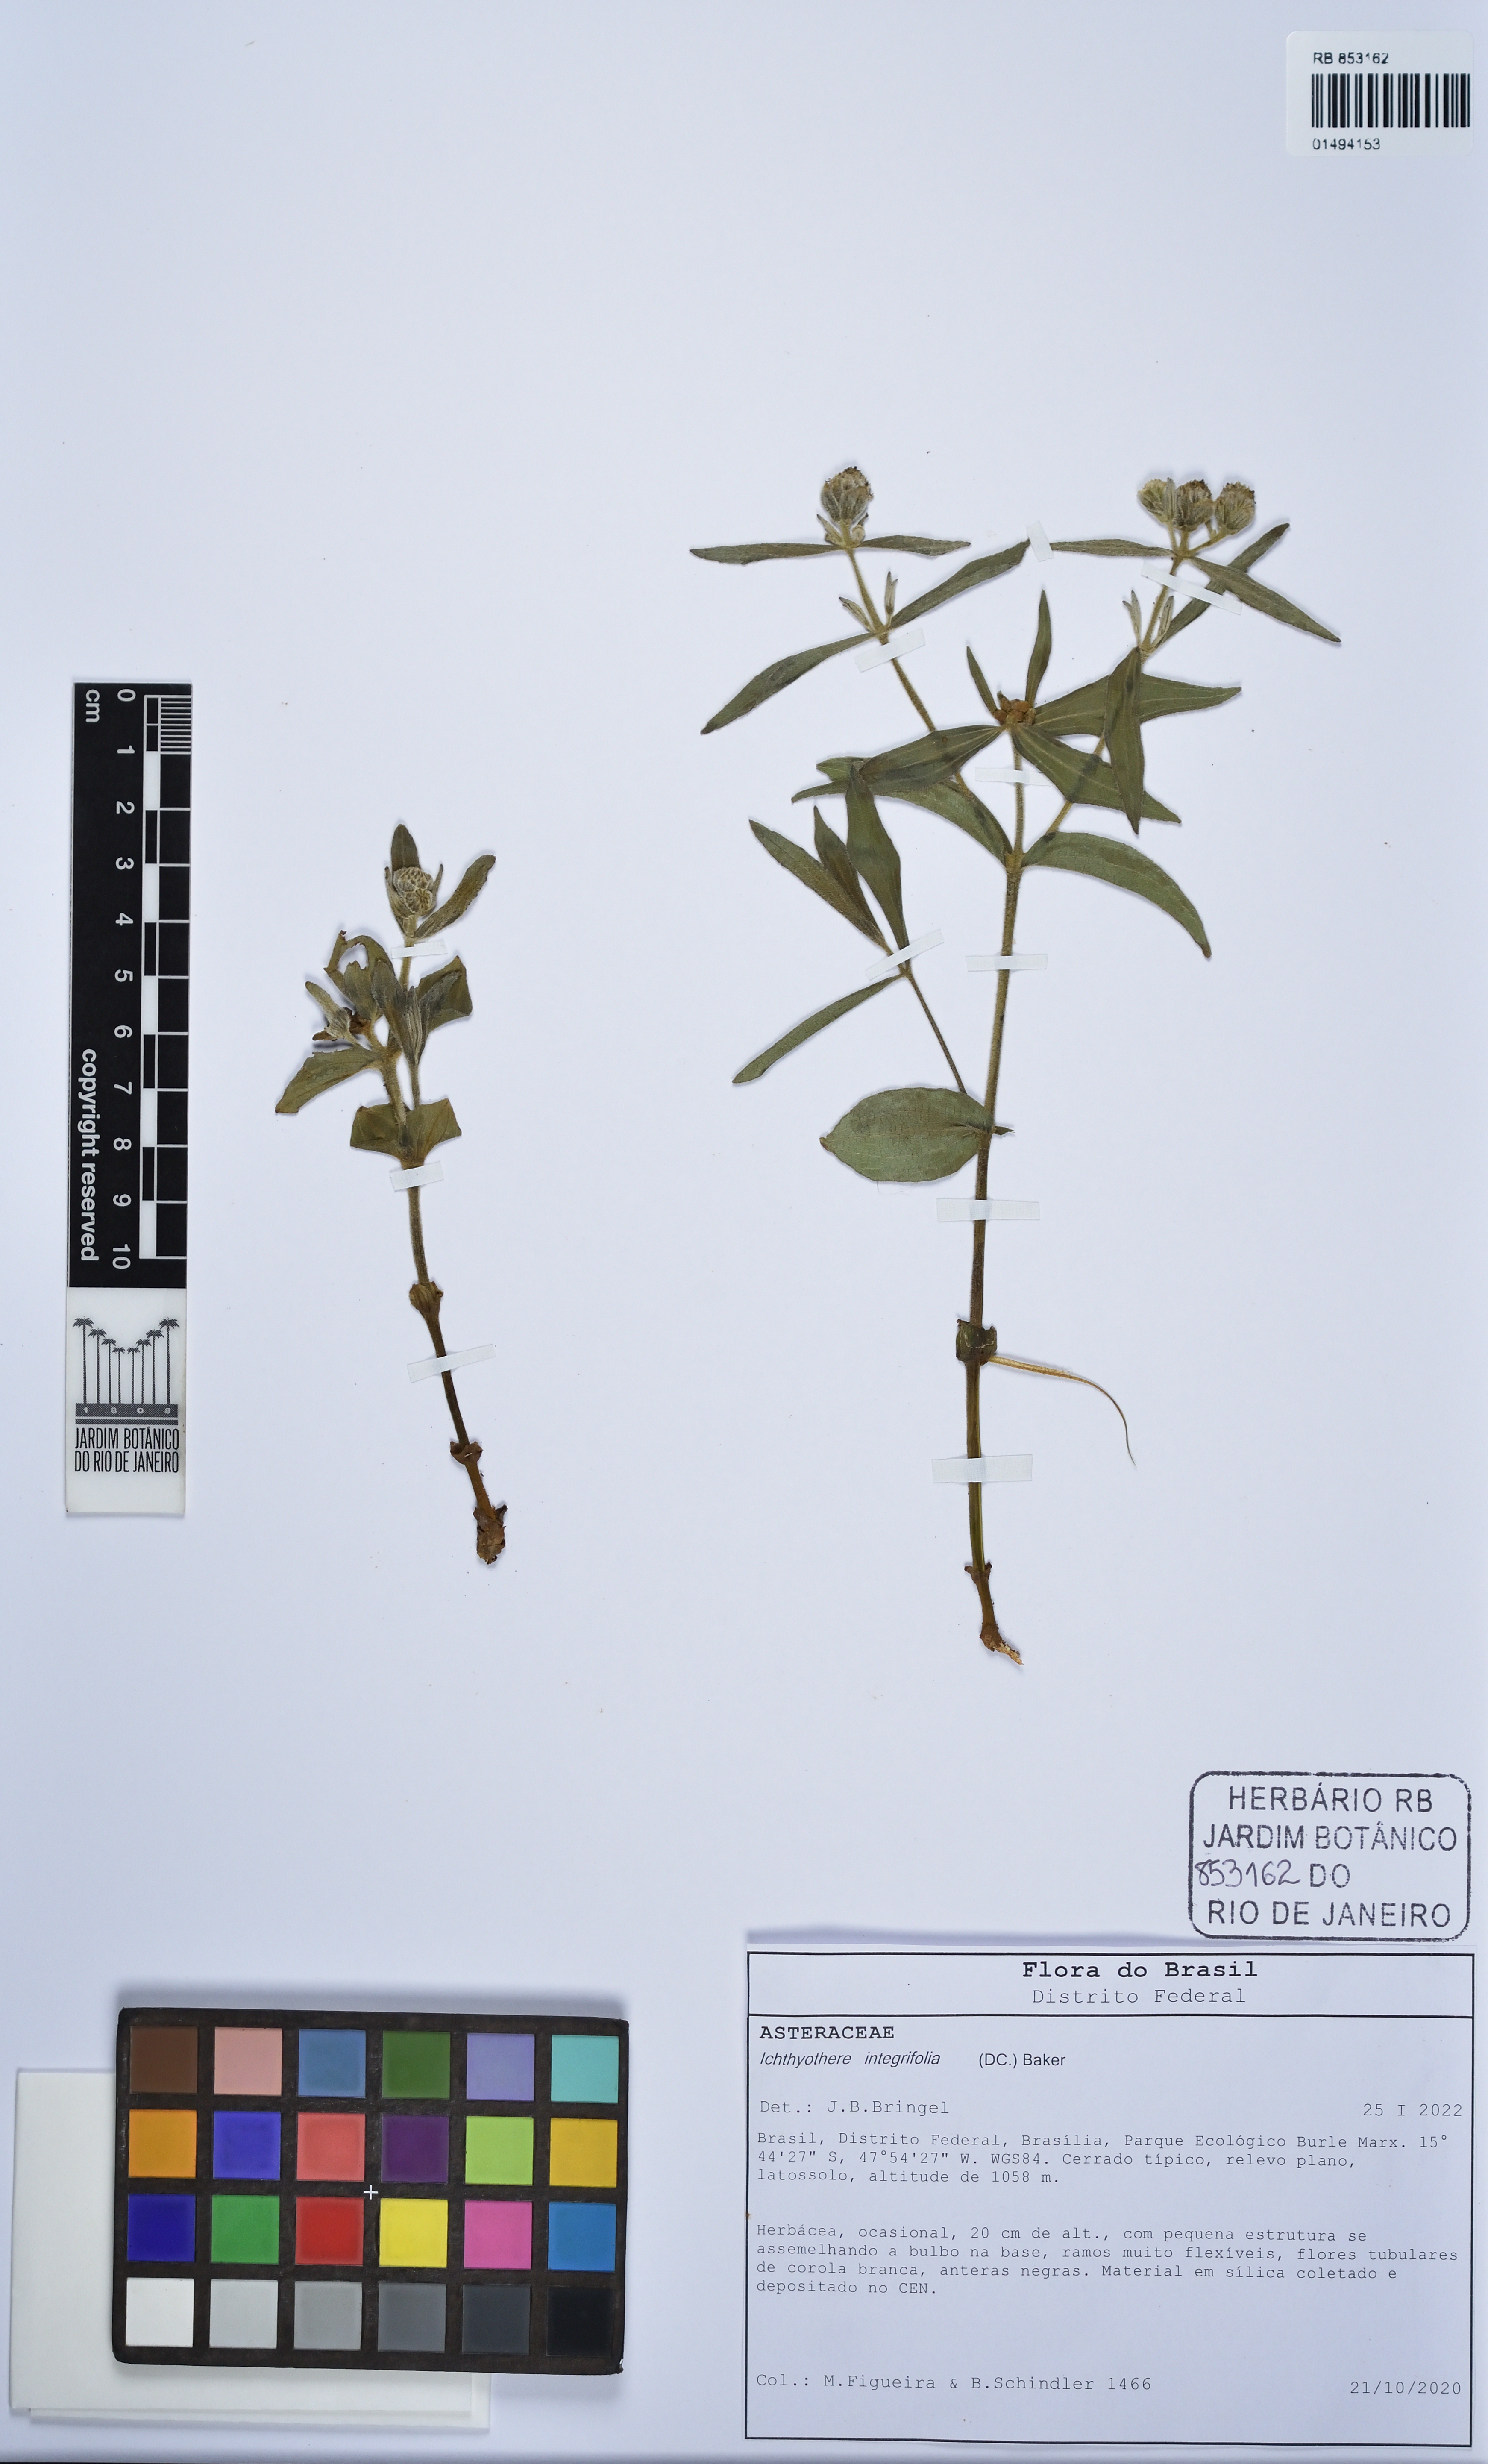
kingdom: Plantae
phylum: Tracheophyta
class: Magnoliopsida
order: Asterales
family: Asteraceae
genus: Ichthyothere
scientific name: Ichthyothere integrifolia
